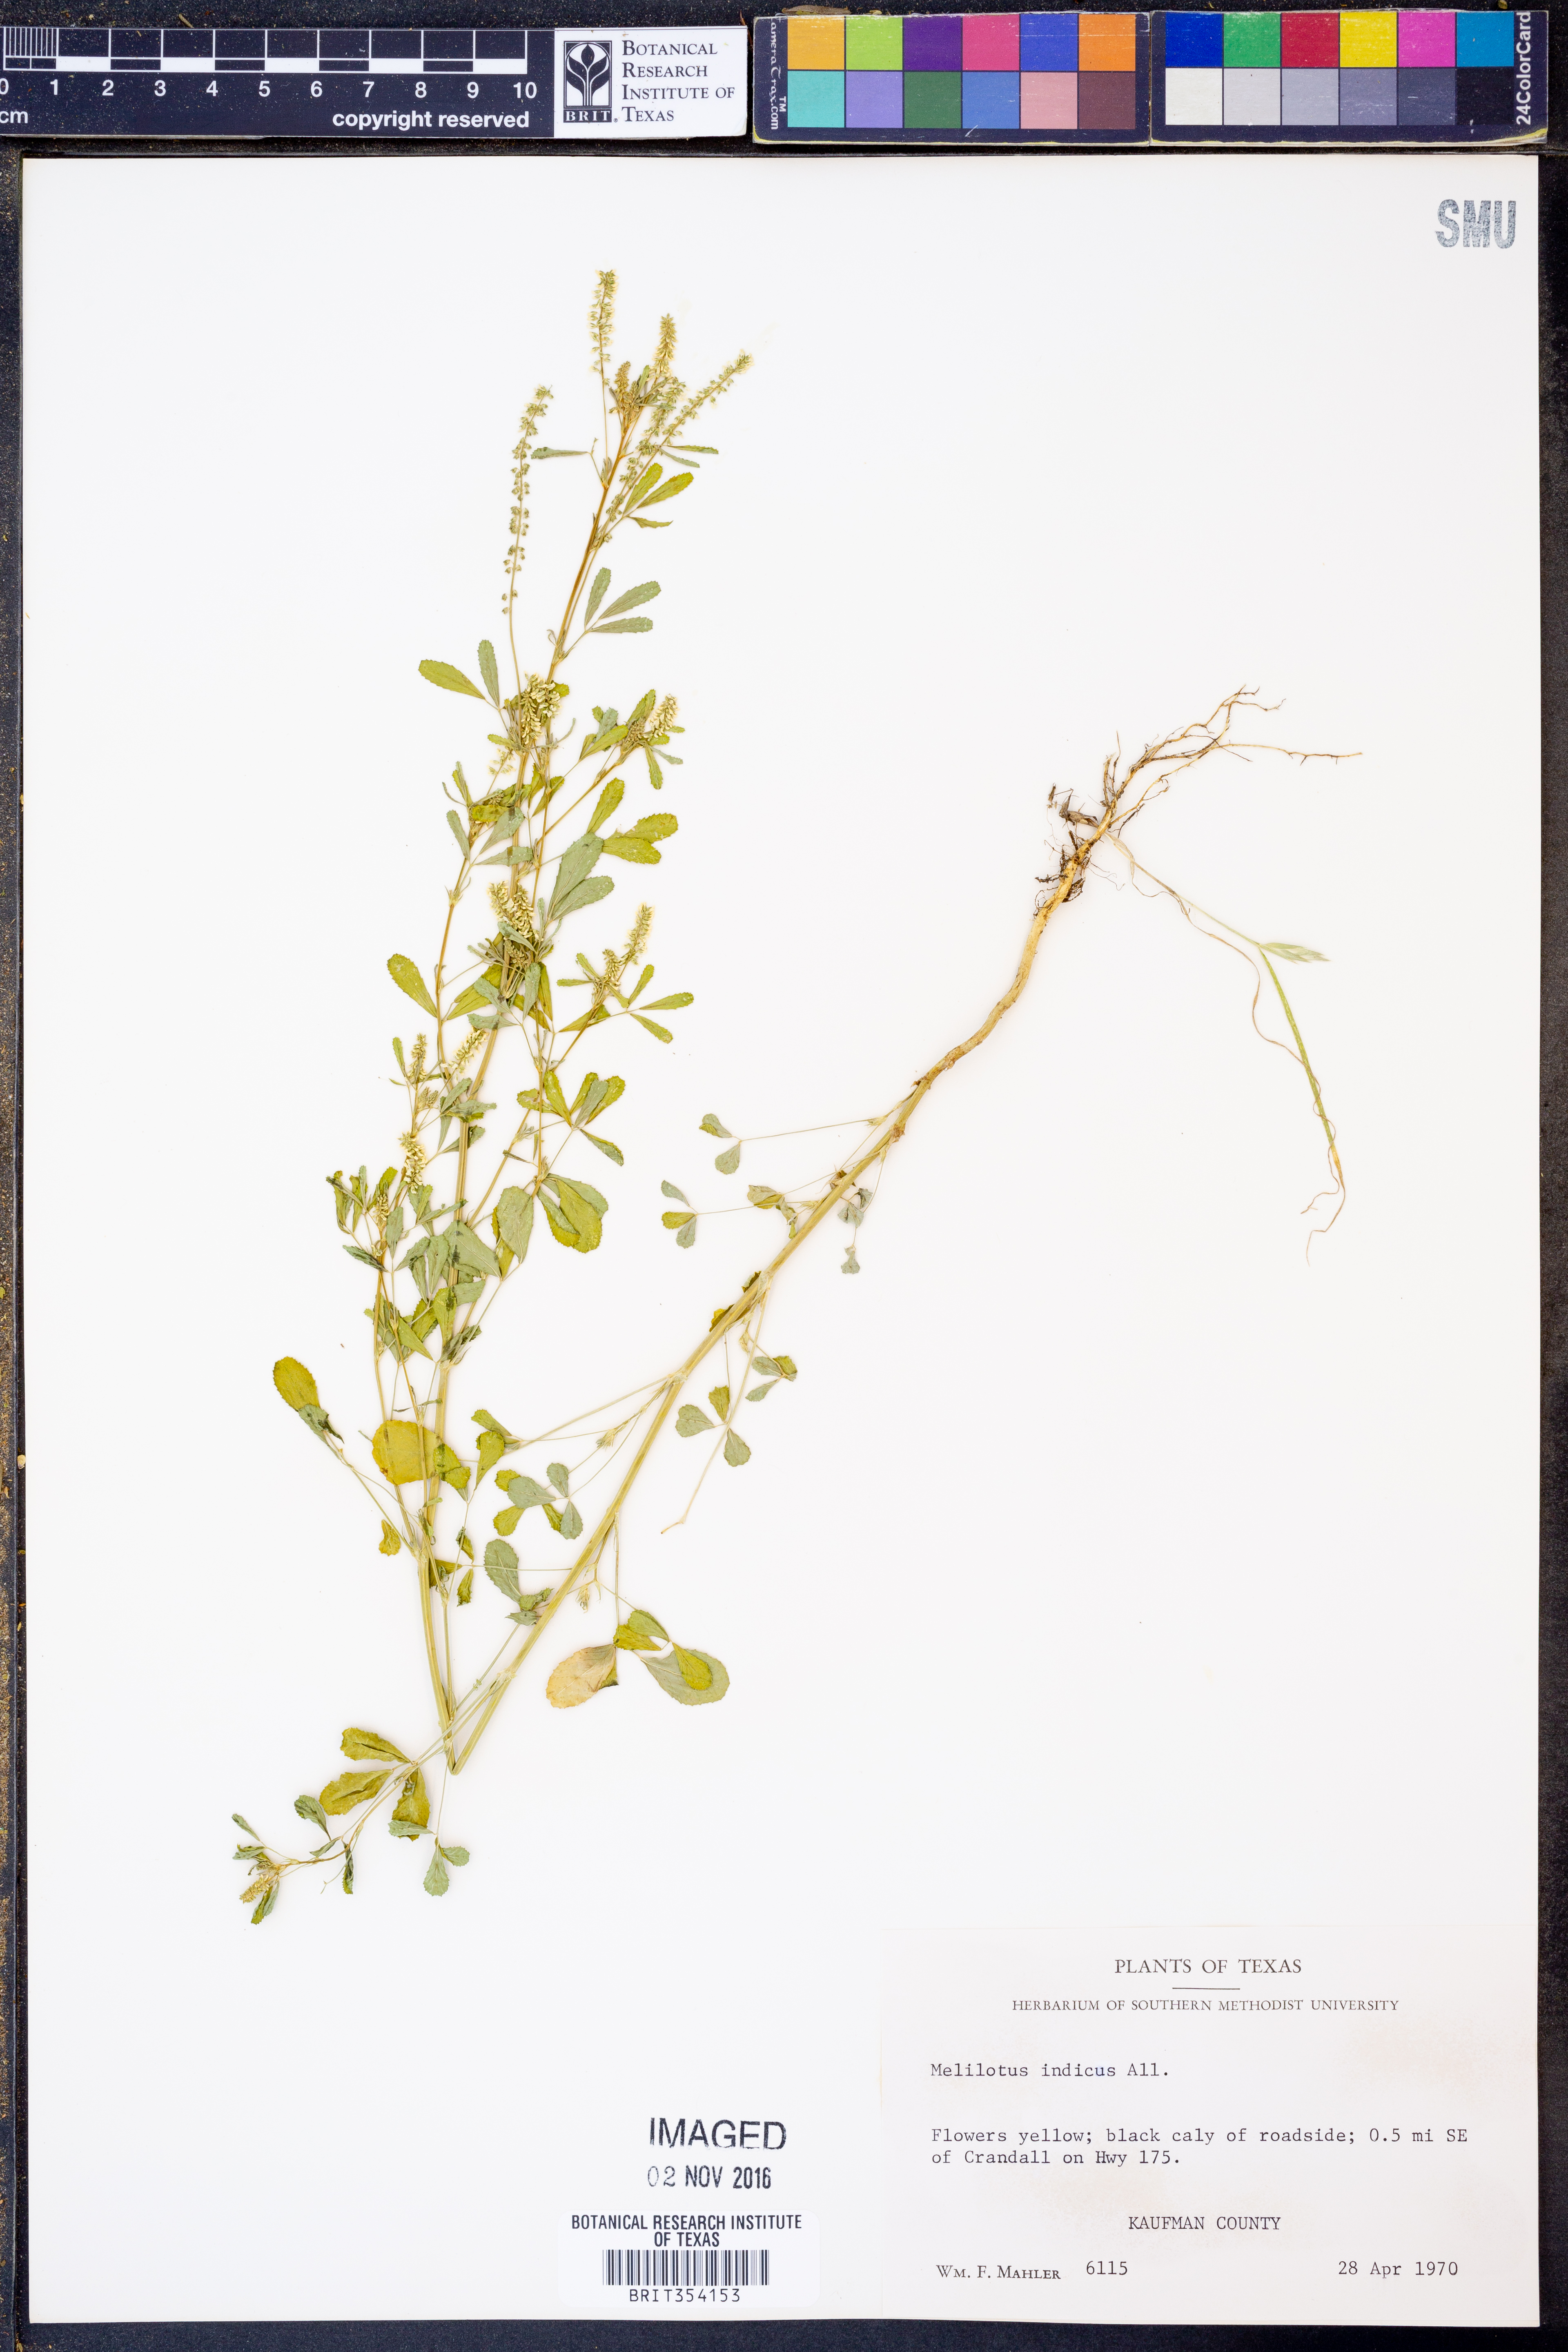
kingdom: Plantae
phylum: Tracheophyta
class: Magnoliopsida
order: Fabales
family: Fabaceae
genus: Melilotus
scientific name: Melilotus indicus
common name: Small melilot
